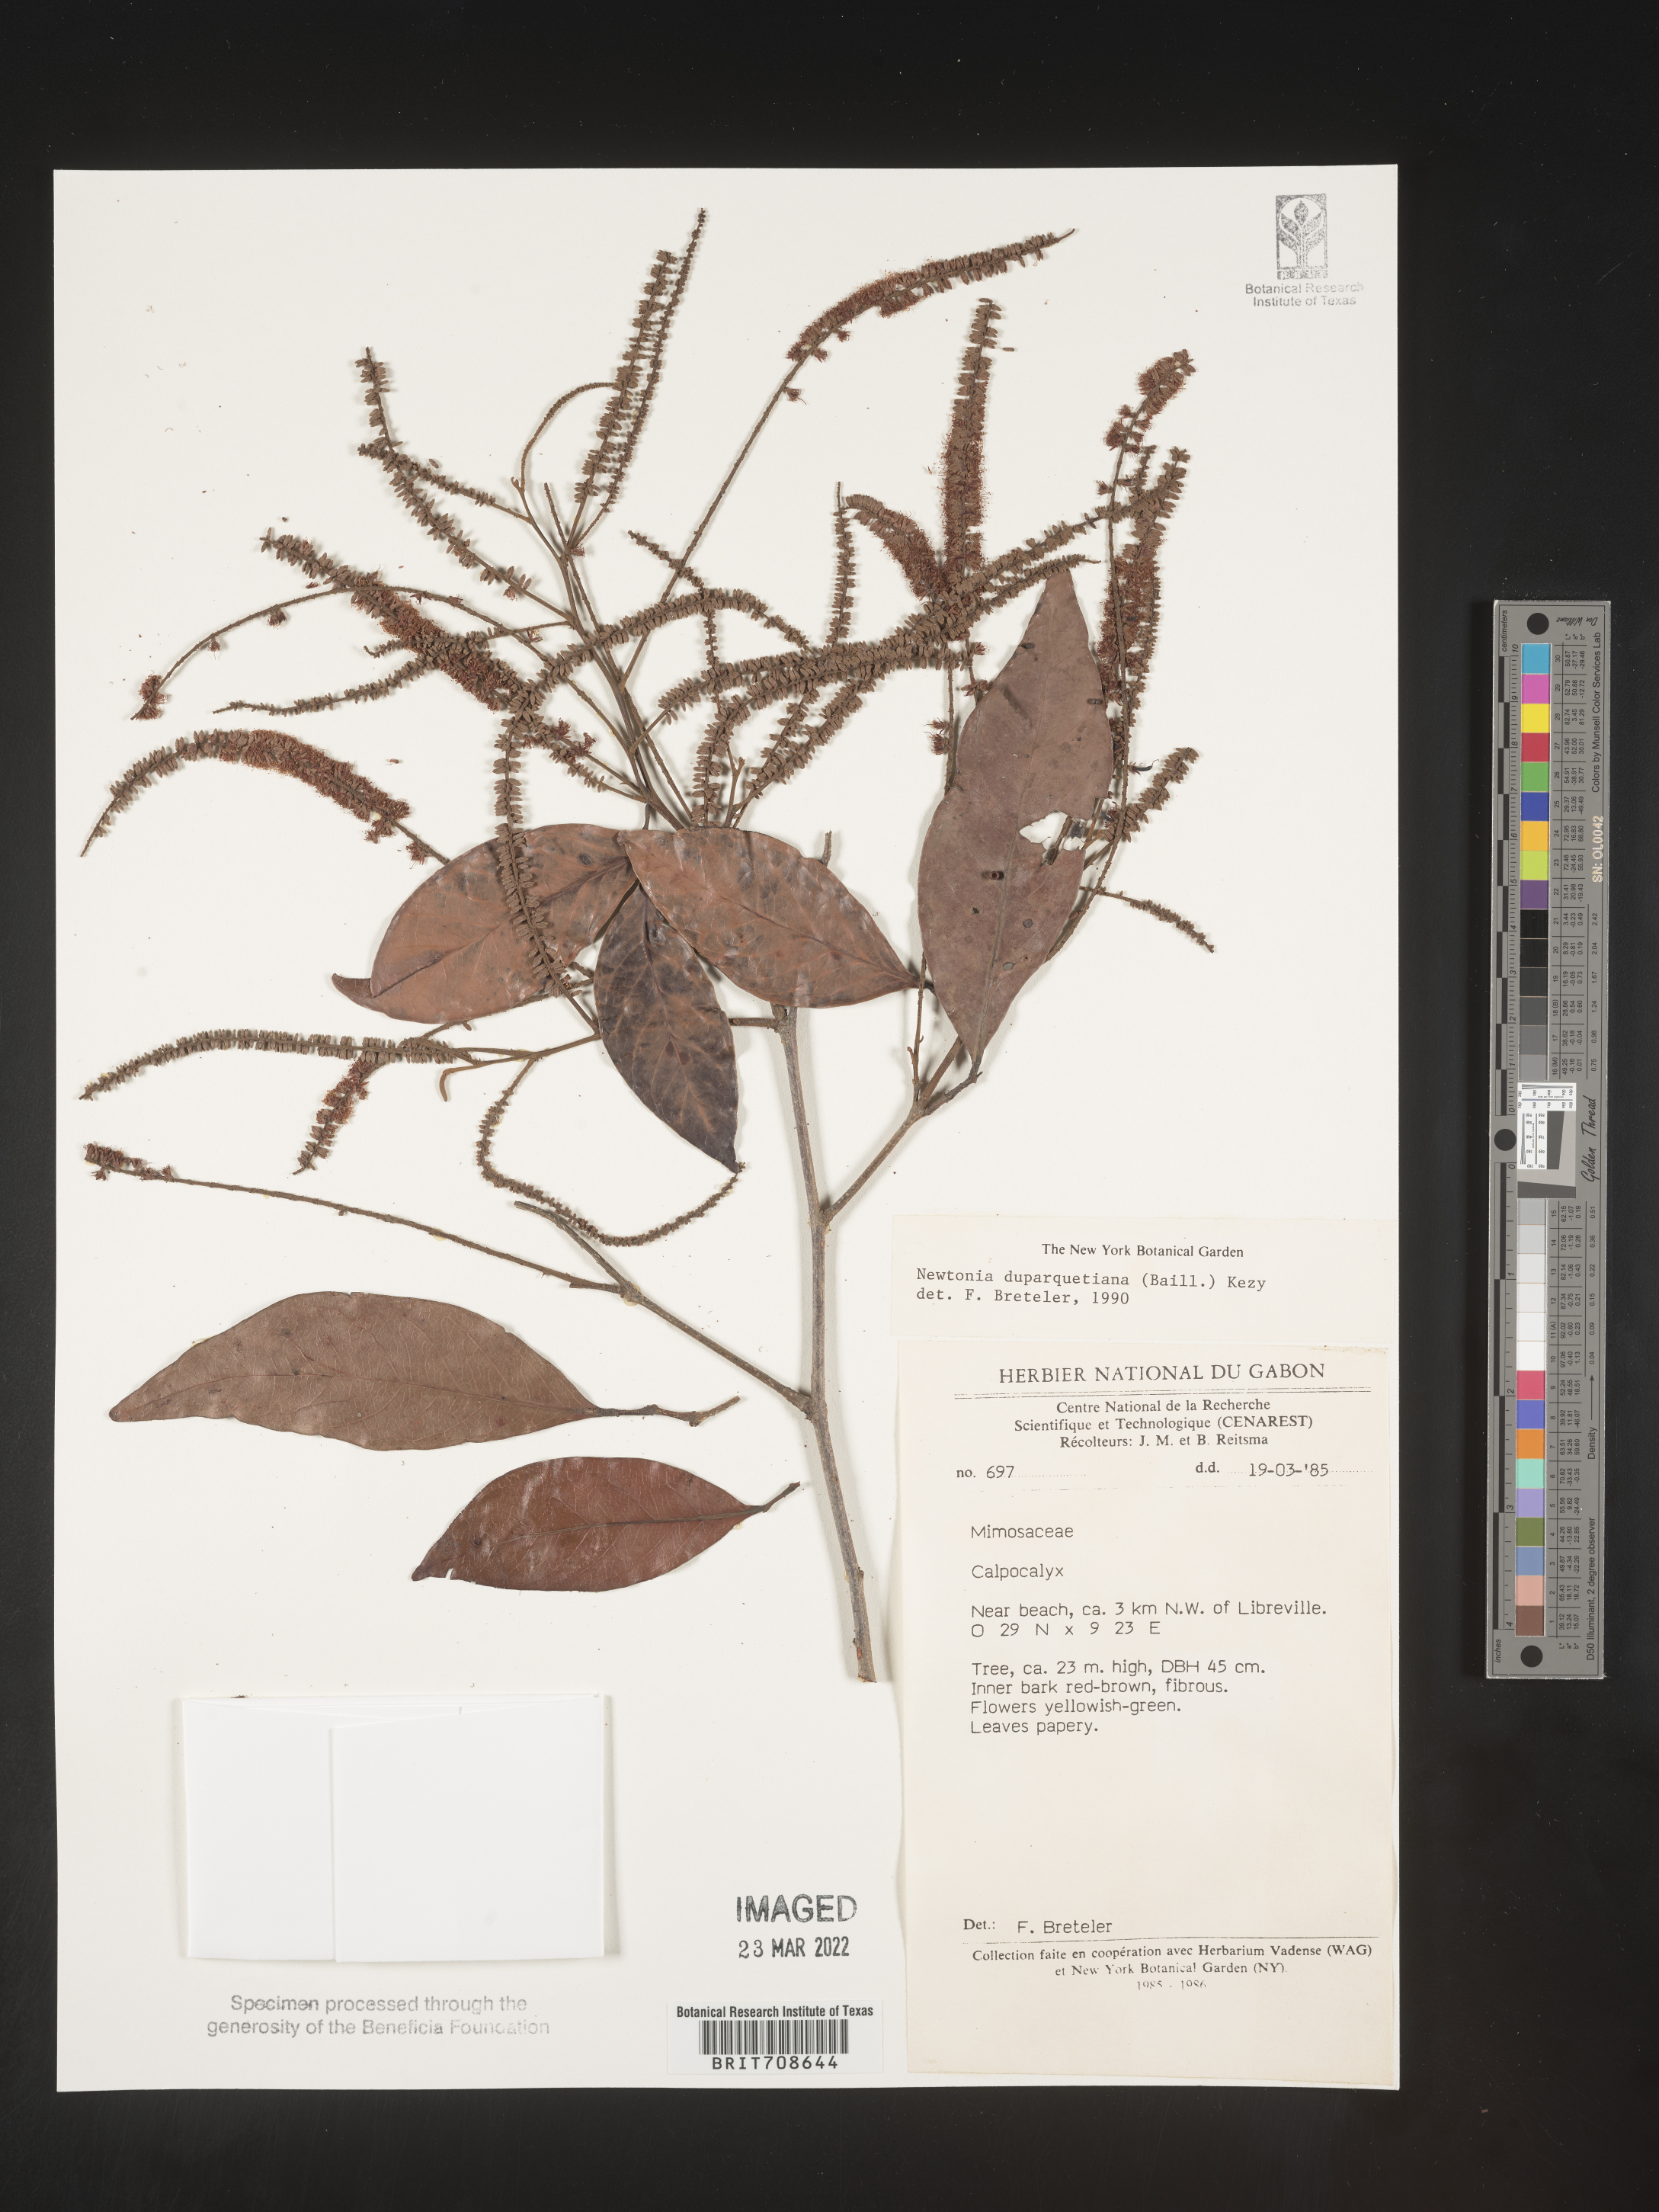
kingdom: Plantae
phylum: Tracheophyta
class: Magnoliopsida
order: Fabales
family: Fabaceae
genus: Newtonia
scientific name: Newtonia
